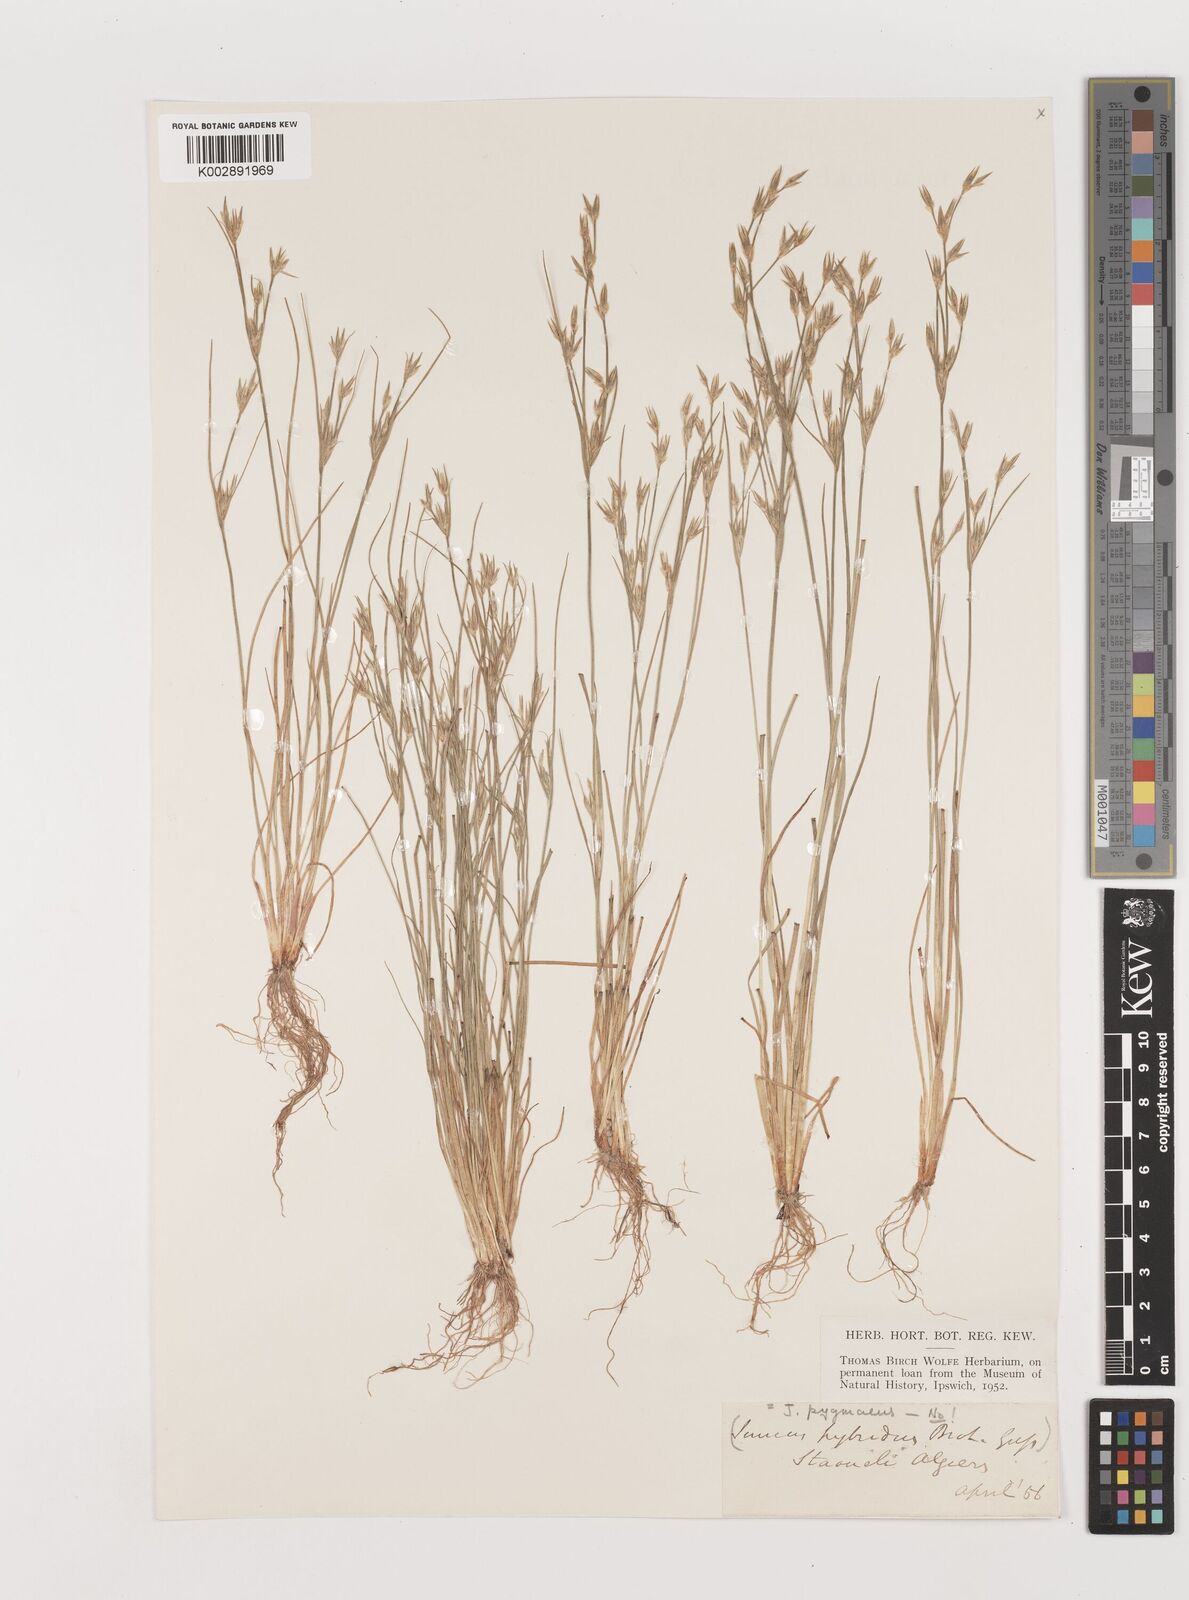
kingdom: Plantae
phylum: Tracheophyta
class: Liliopsida
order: Poales
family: Juncaceae
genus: Juncus
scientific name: Juncus bufonius
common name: Toad rush
